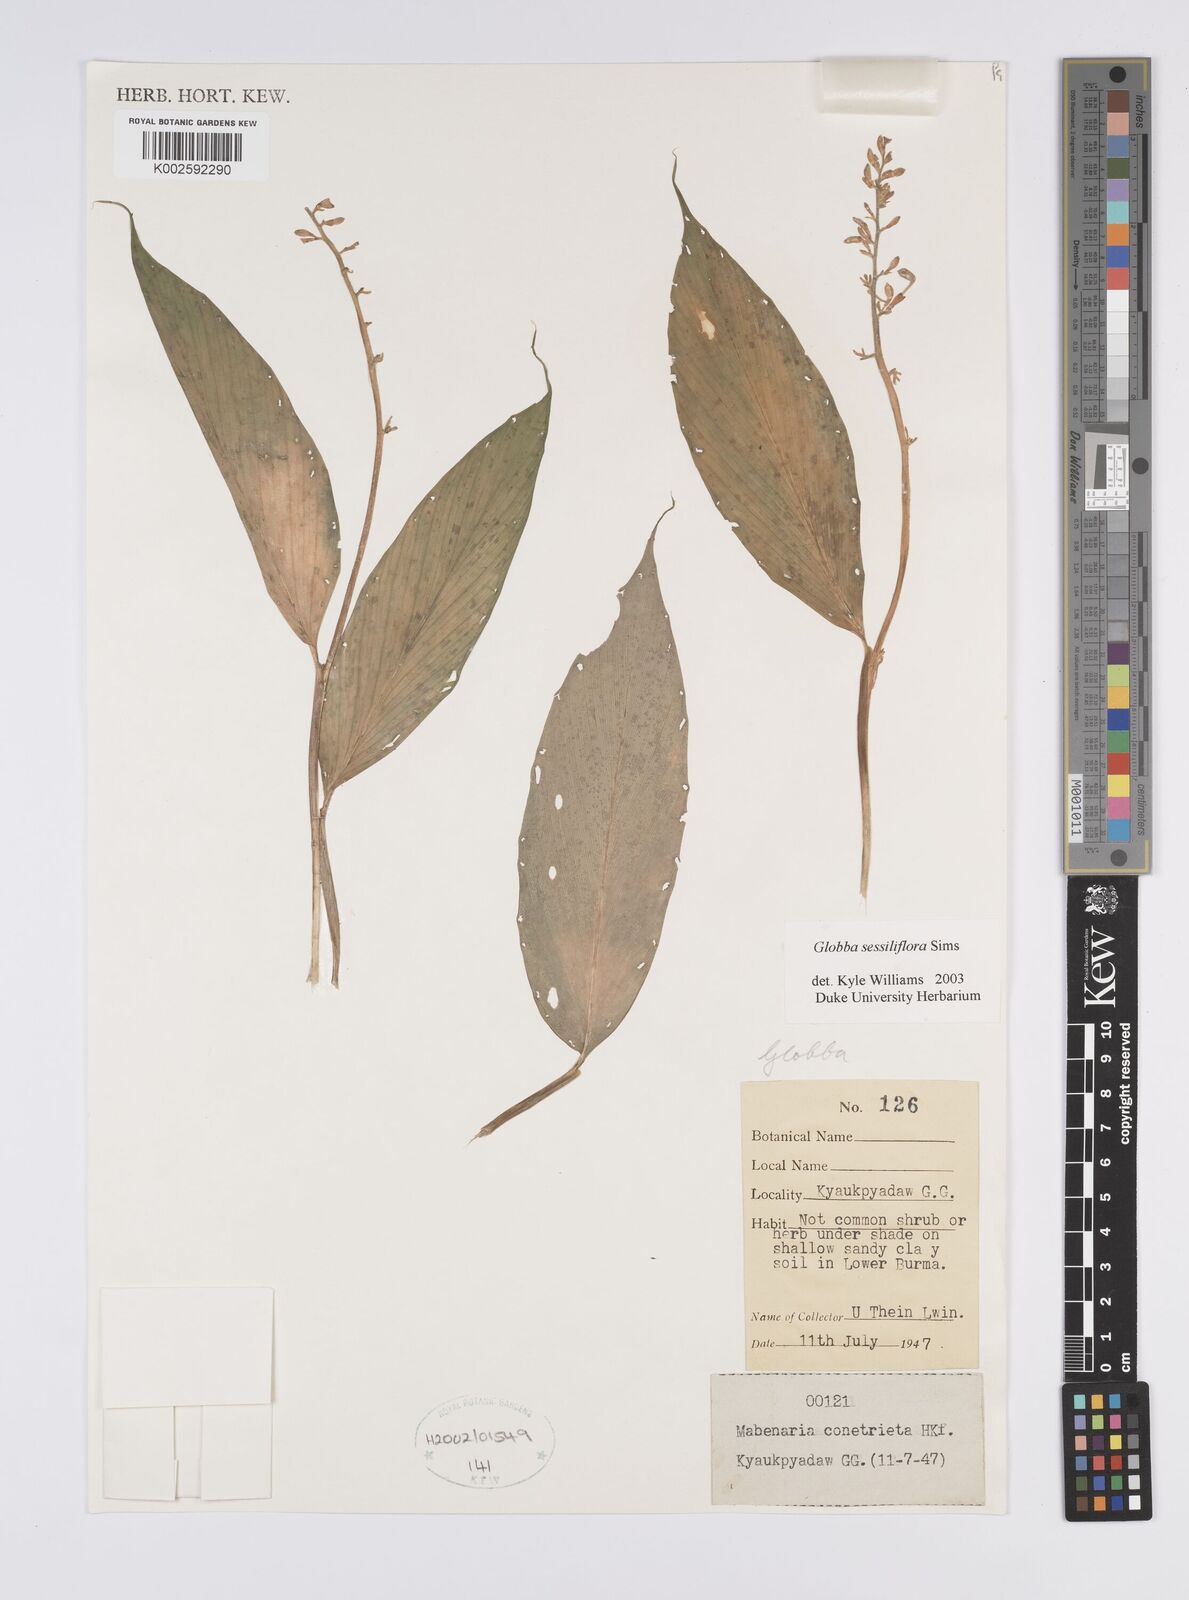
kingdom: Plantae
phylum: Tracheophyta
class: Liliopsida
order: Zingiberales
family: Zingiberaceae
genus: Globba
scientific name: Globba sessiliflora
